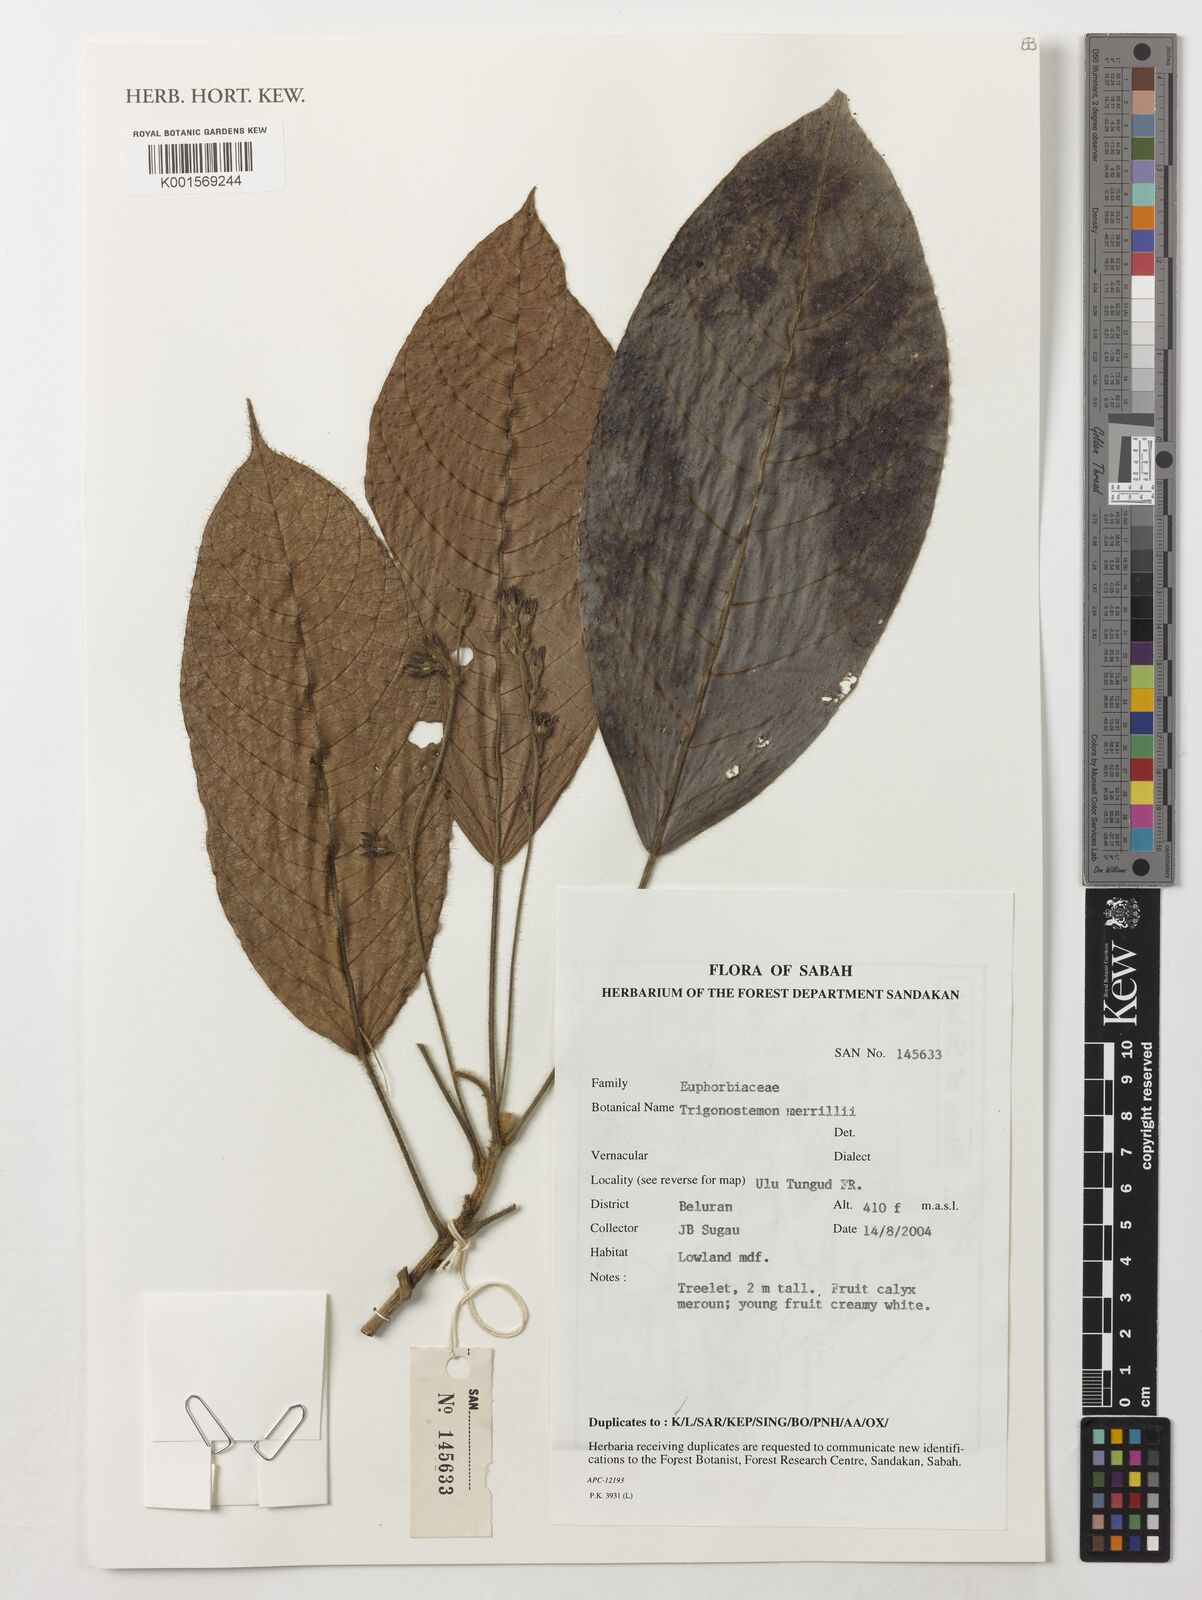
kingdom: Plantae
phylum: Tracheophyta
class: Magnoliopsida
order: Malpighiales
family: Euphorbiaceae
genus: Trigonostemon
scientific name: Trigonostemon merrillii
